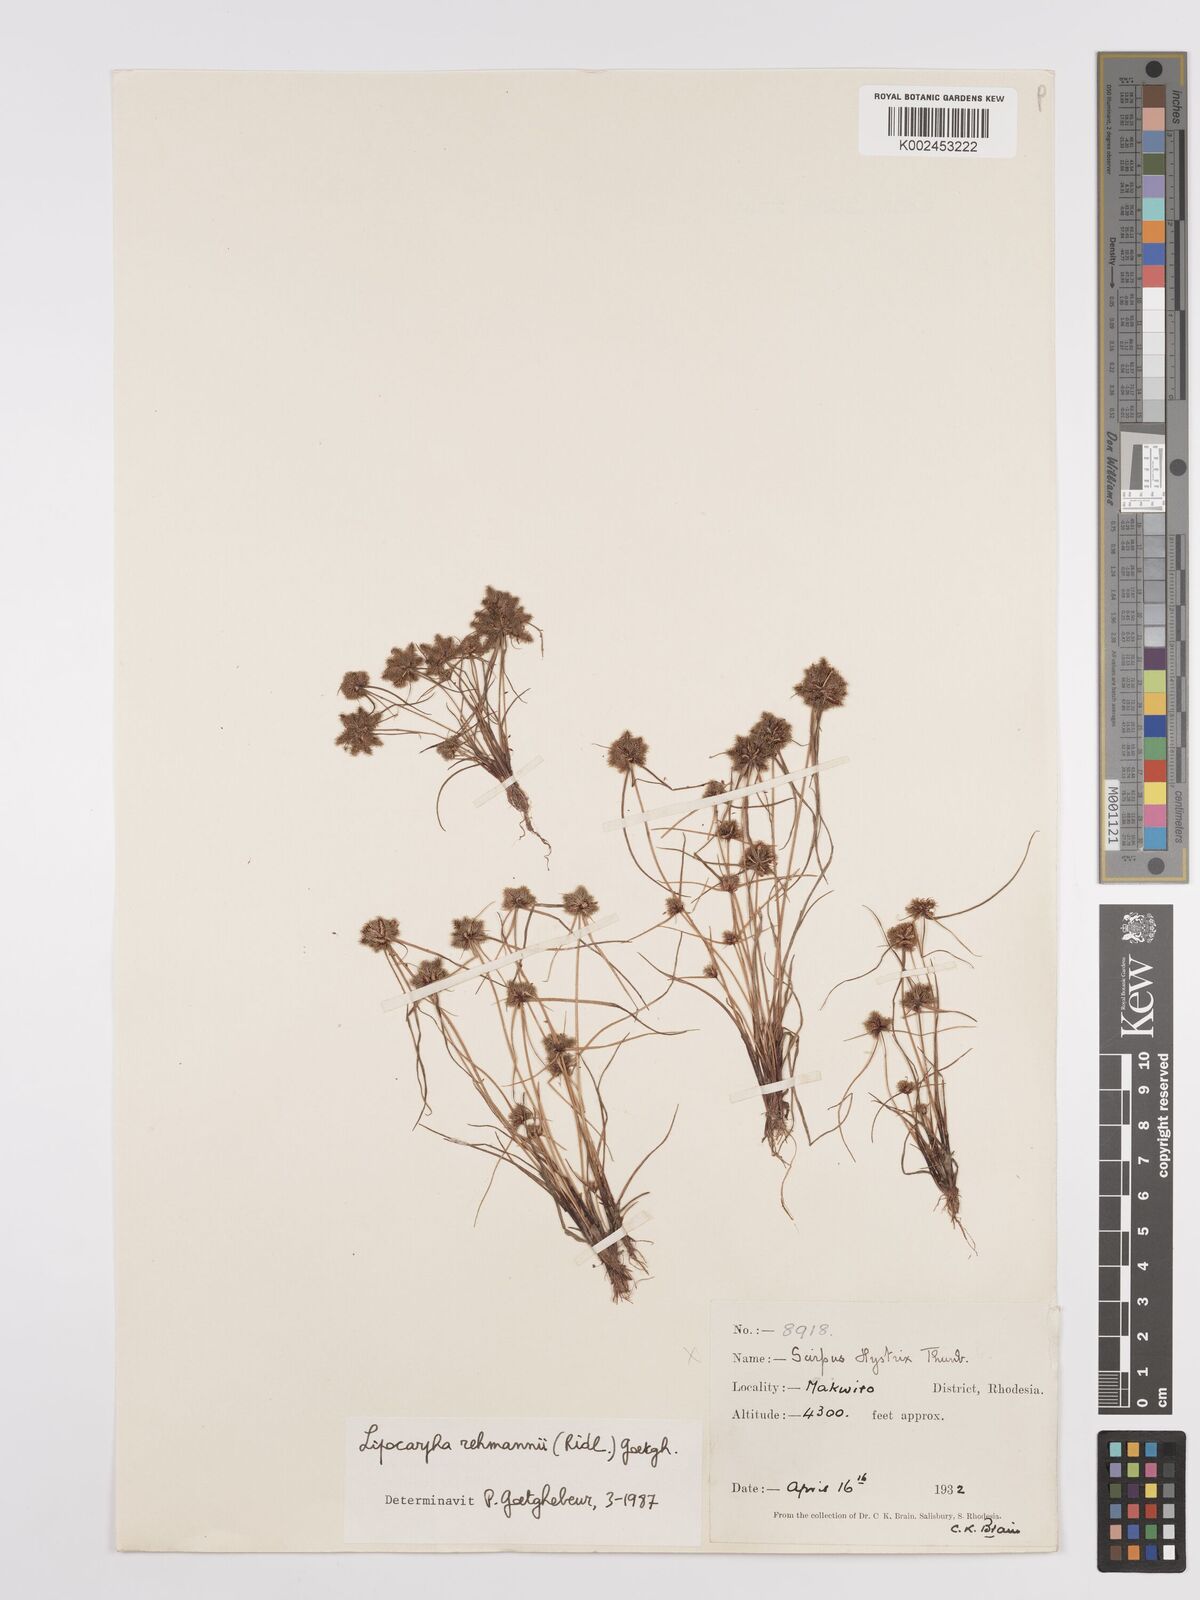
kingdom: Plantae
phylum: Tracheophyta
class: Liliopsida
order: Poales
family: Cyperaceae
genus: Cyperus
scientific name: Cyperus sanguinolentus
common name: Purpleglume flatsedge
